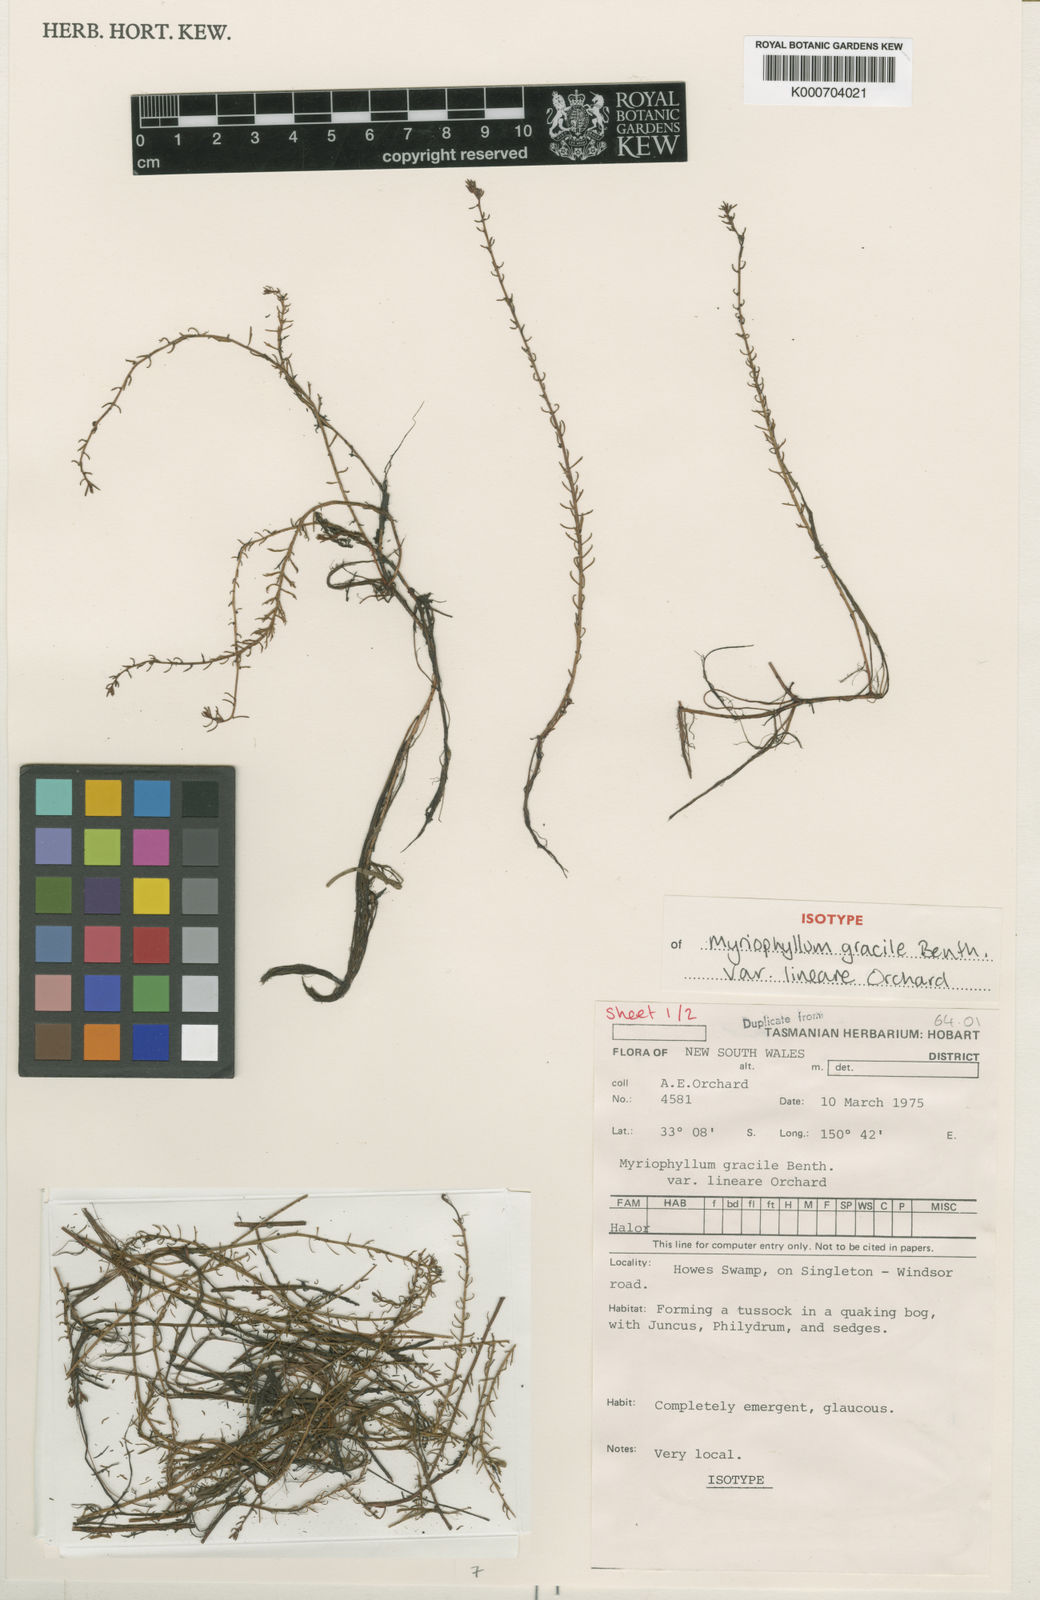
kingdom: Plantae
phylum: Tracheophyta
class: Magnoliopsida
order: Saxifragales
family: Haloragaceae
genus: Myriophyllum
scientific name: Myriophyllum gracile
